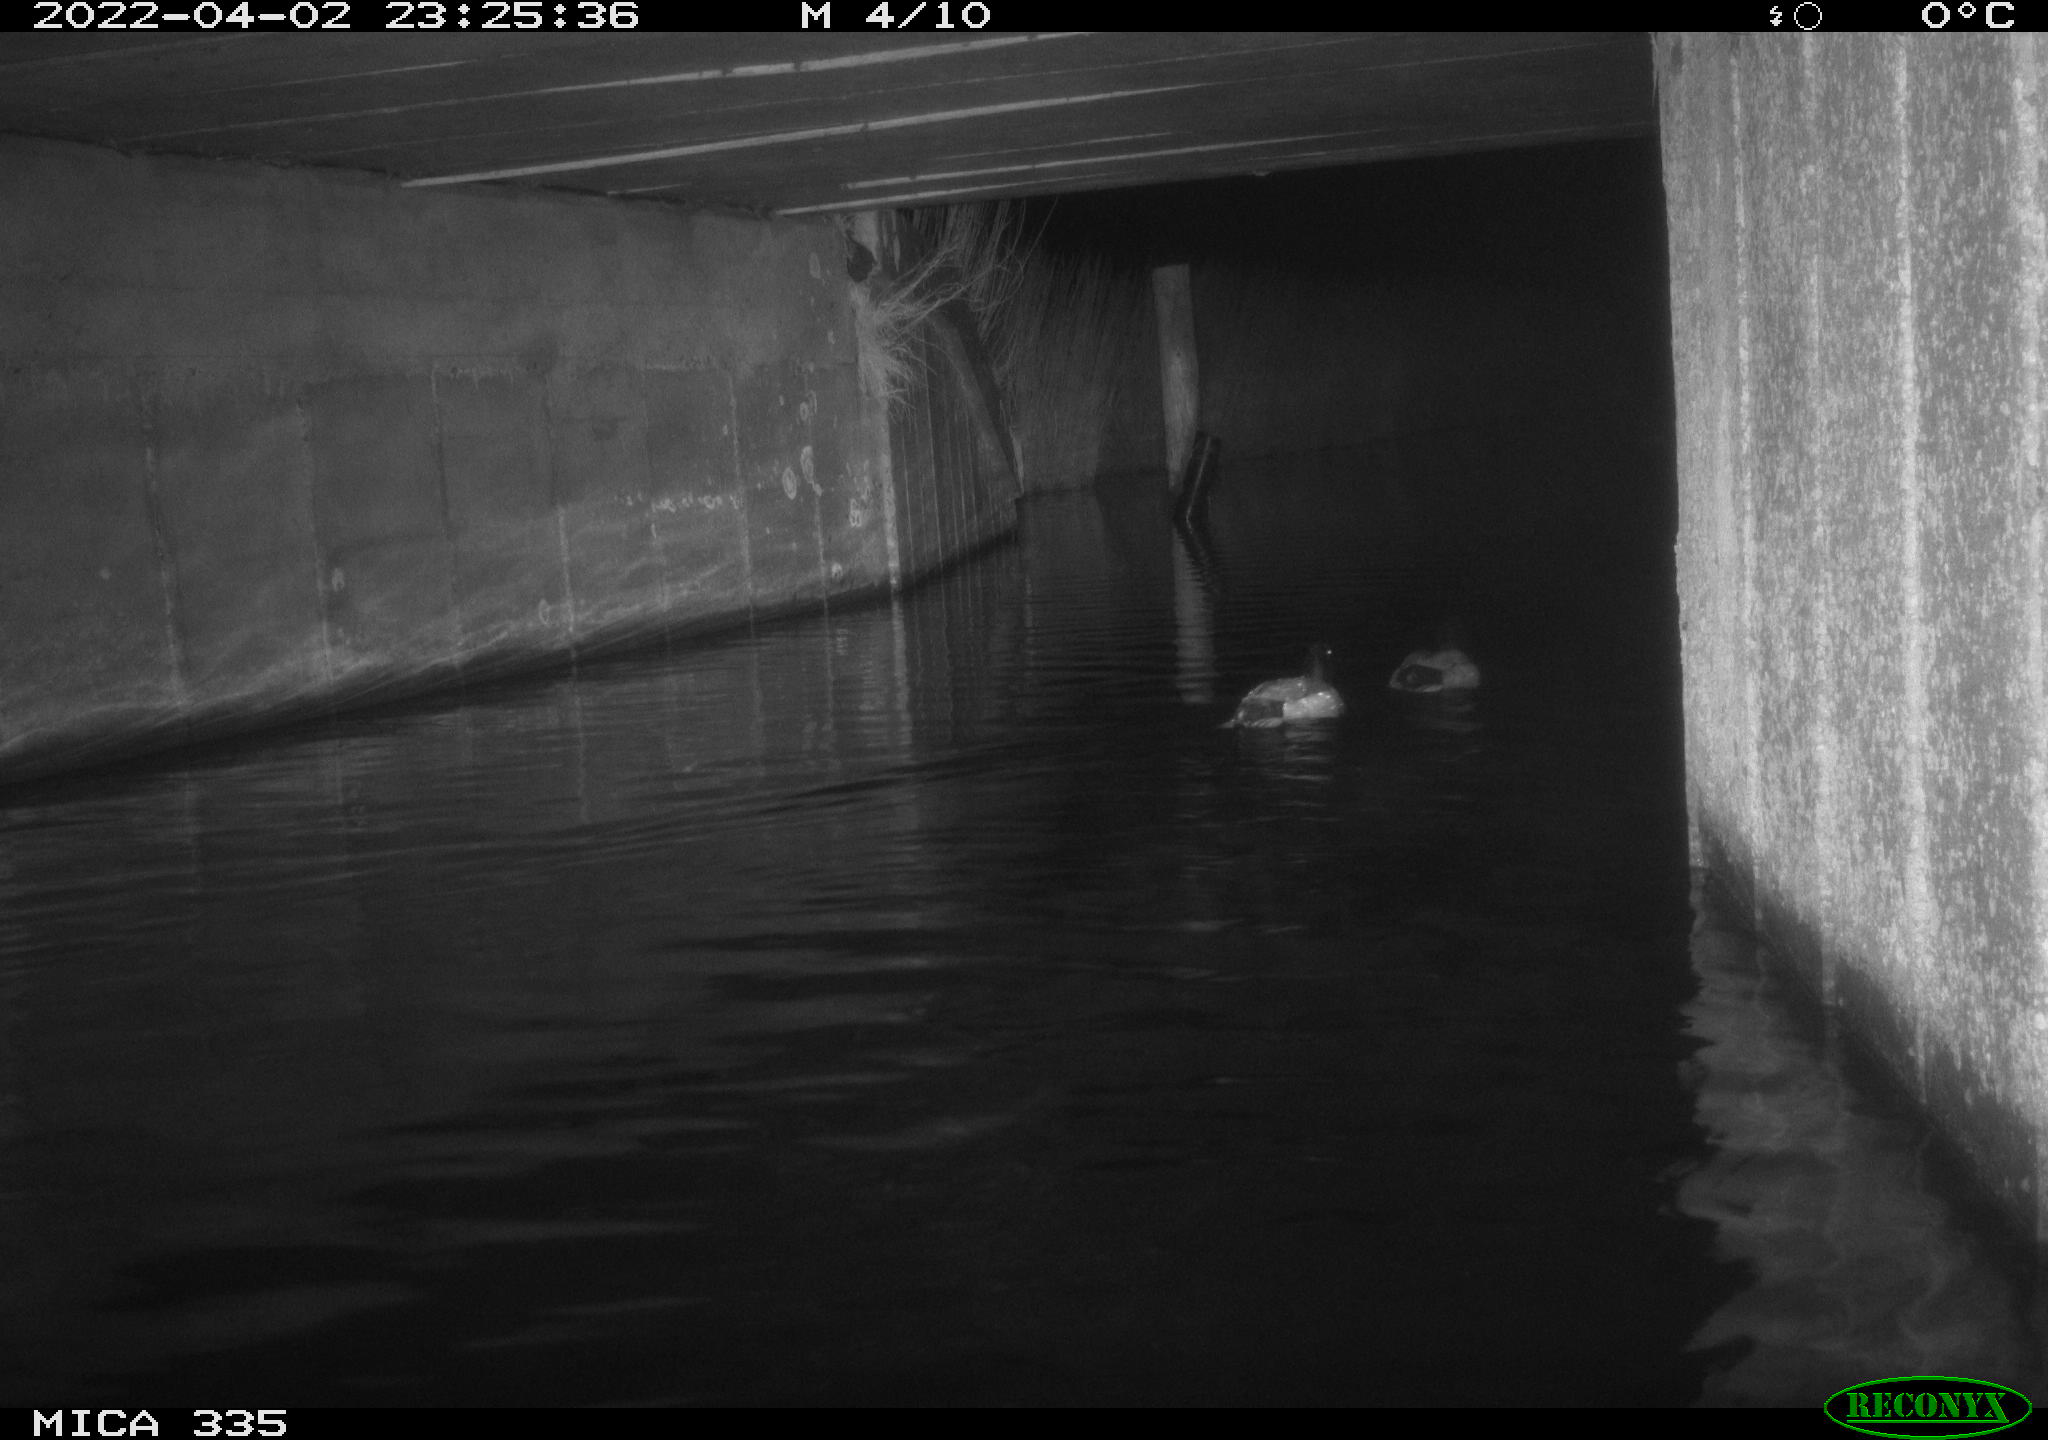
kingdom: Animalia
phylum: Chordata
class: Aves
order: Anseriformes
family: Anatidae
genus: Anas
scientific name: Anas platyrhynchos
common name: Mallard
